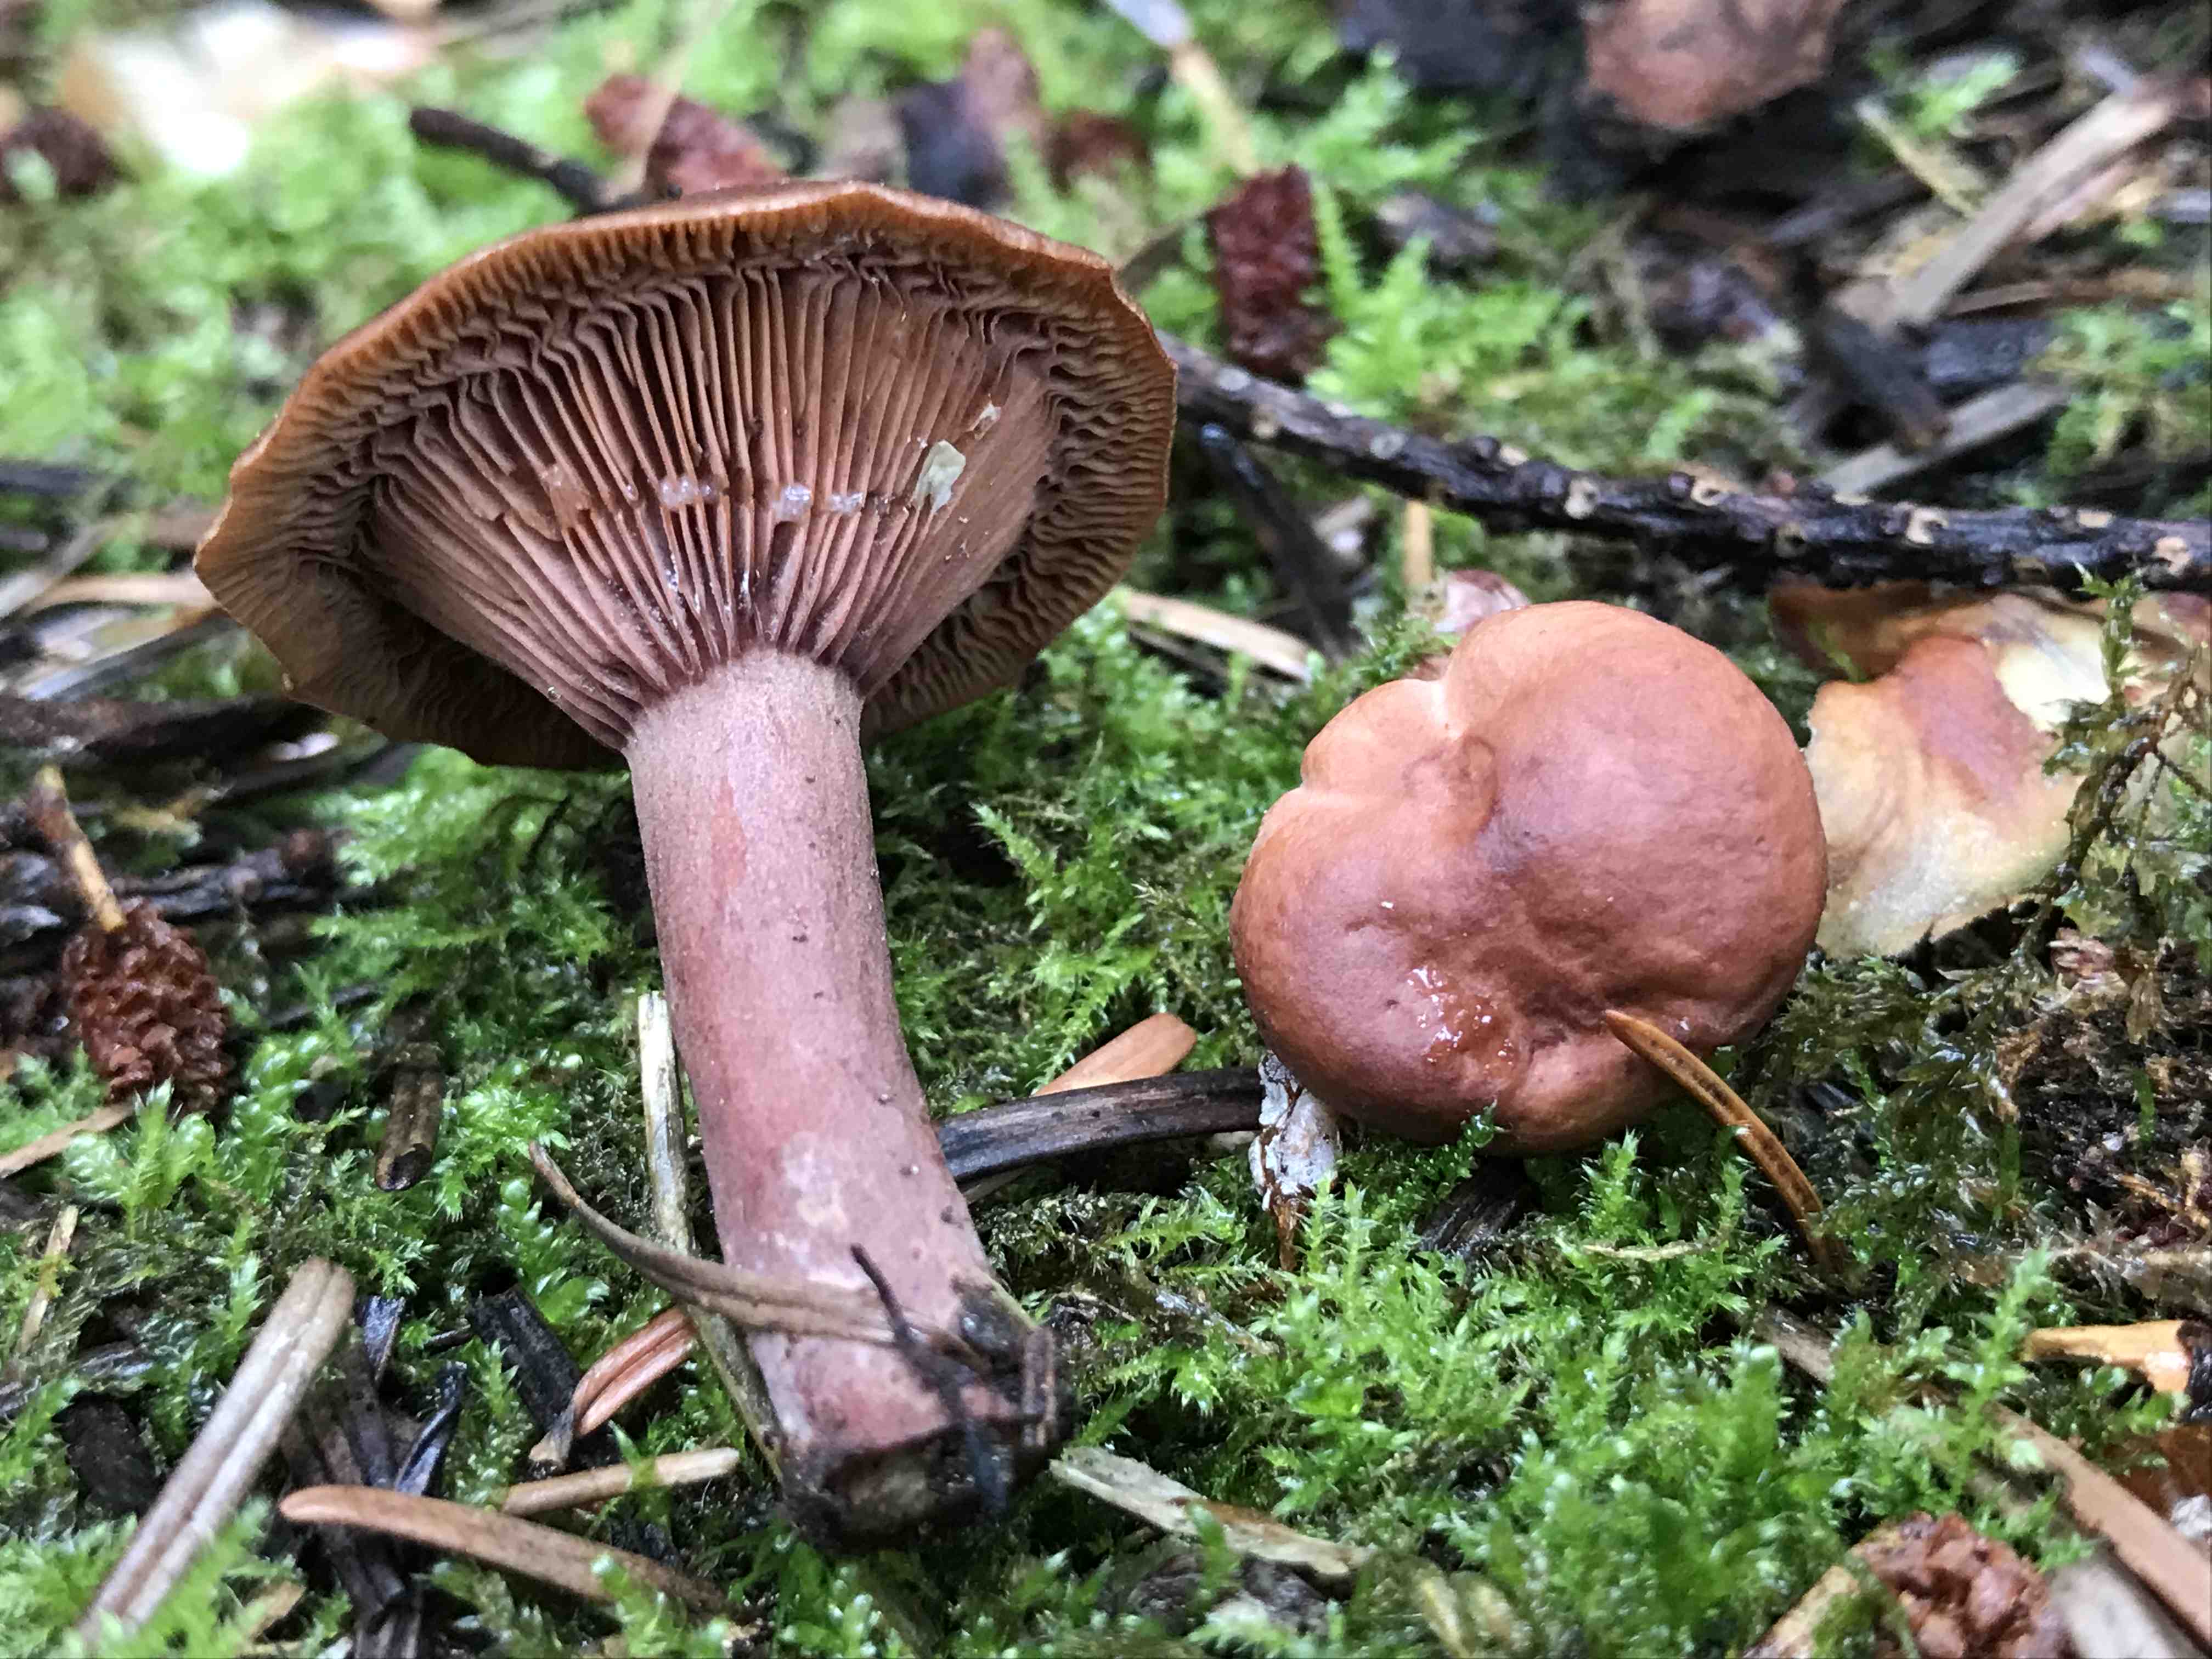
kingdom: Fungi
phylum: Basidiomycota
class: Agaricomycetes
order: Russulales
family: Russulaceae
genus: Lactarius
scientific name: Lactarius camphoratus
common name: kamfer-mælkehat
